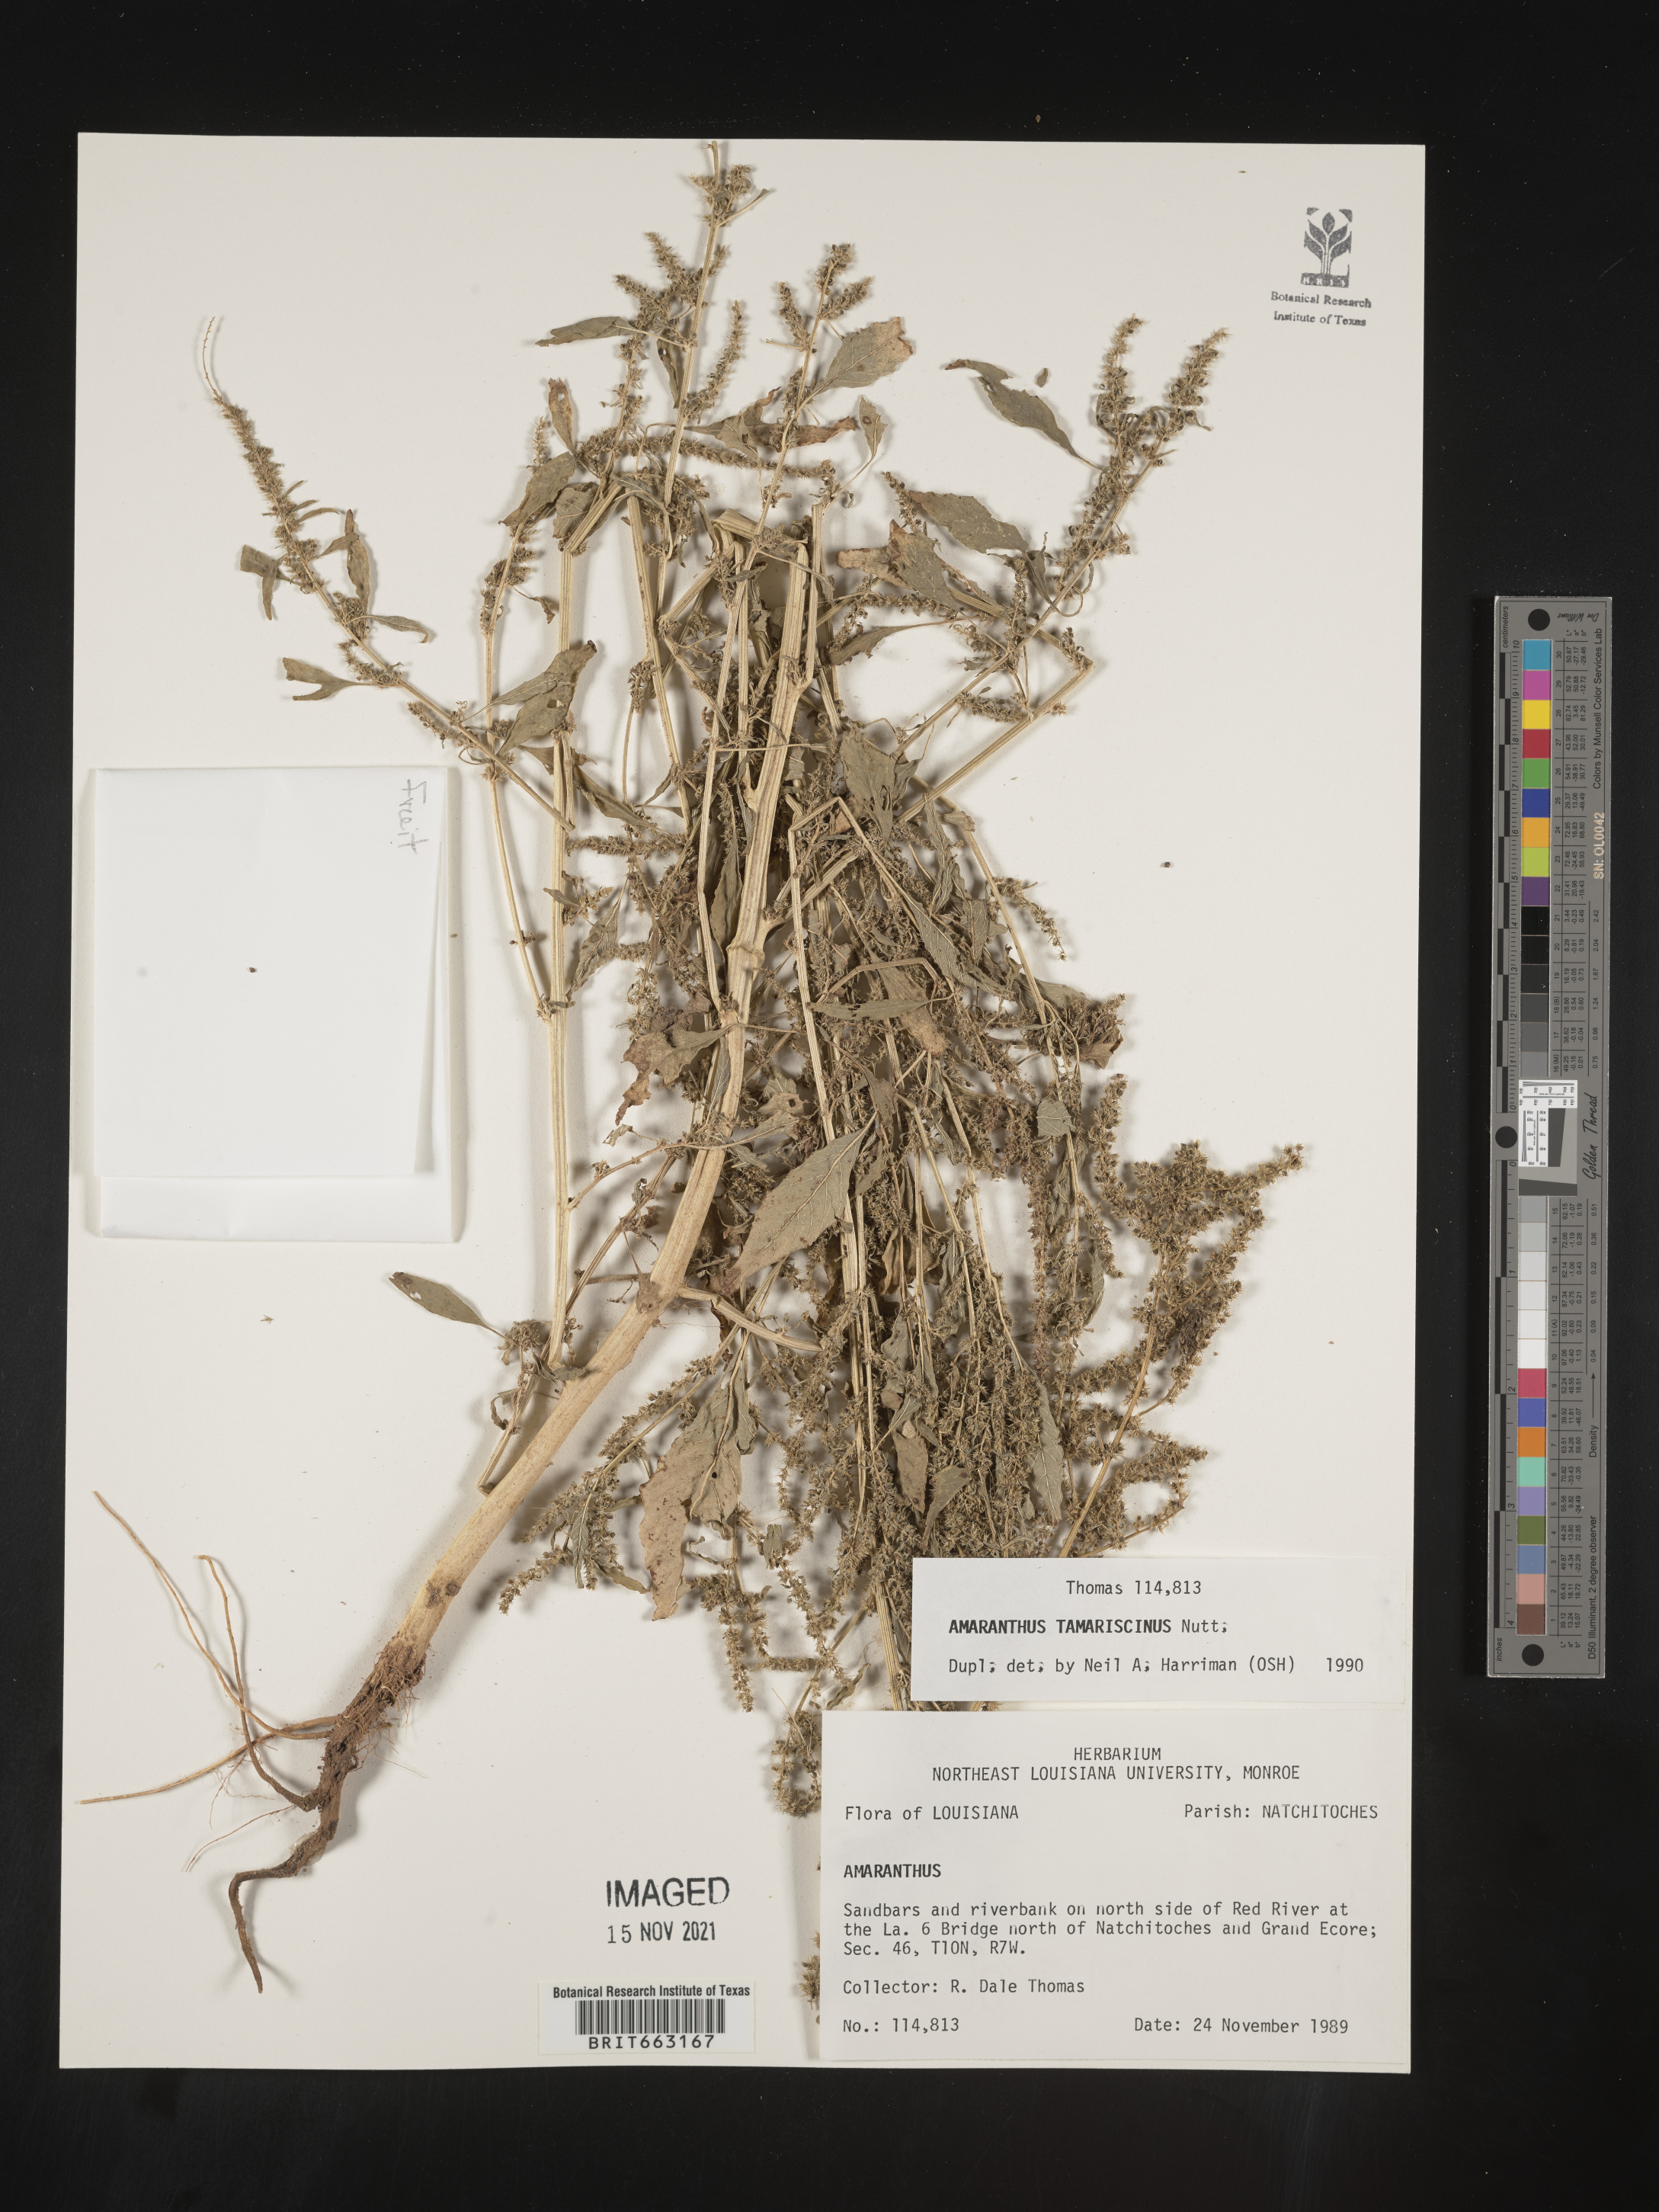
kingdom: Plantae
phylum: Tracheophyta
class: Magnoliopsida
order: Caryophyllales
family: Amaranthaceae
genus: Amaranthus
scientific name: Amaranthus tamariscinus
